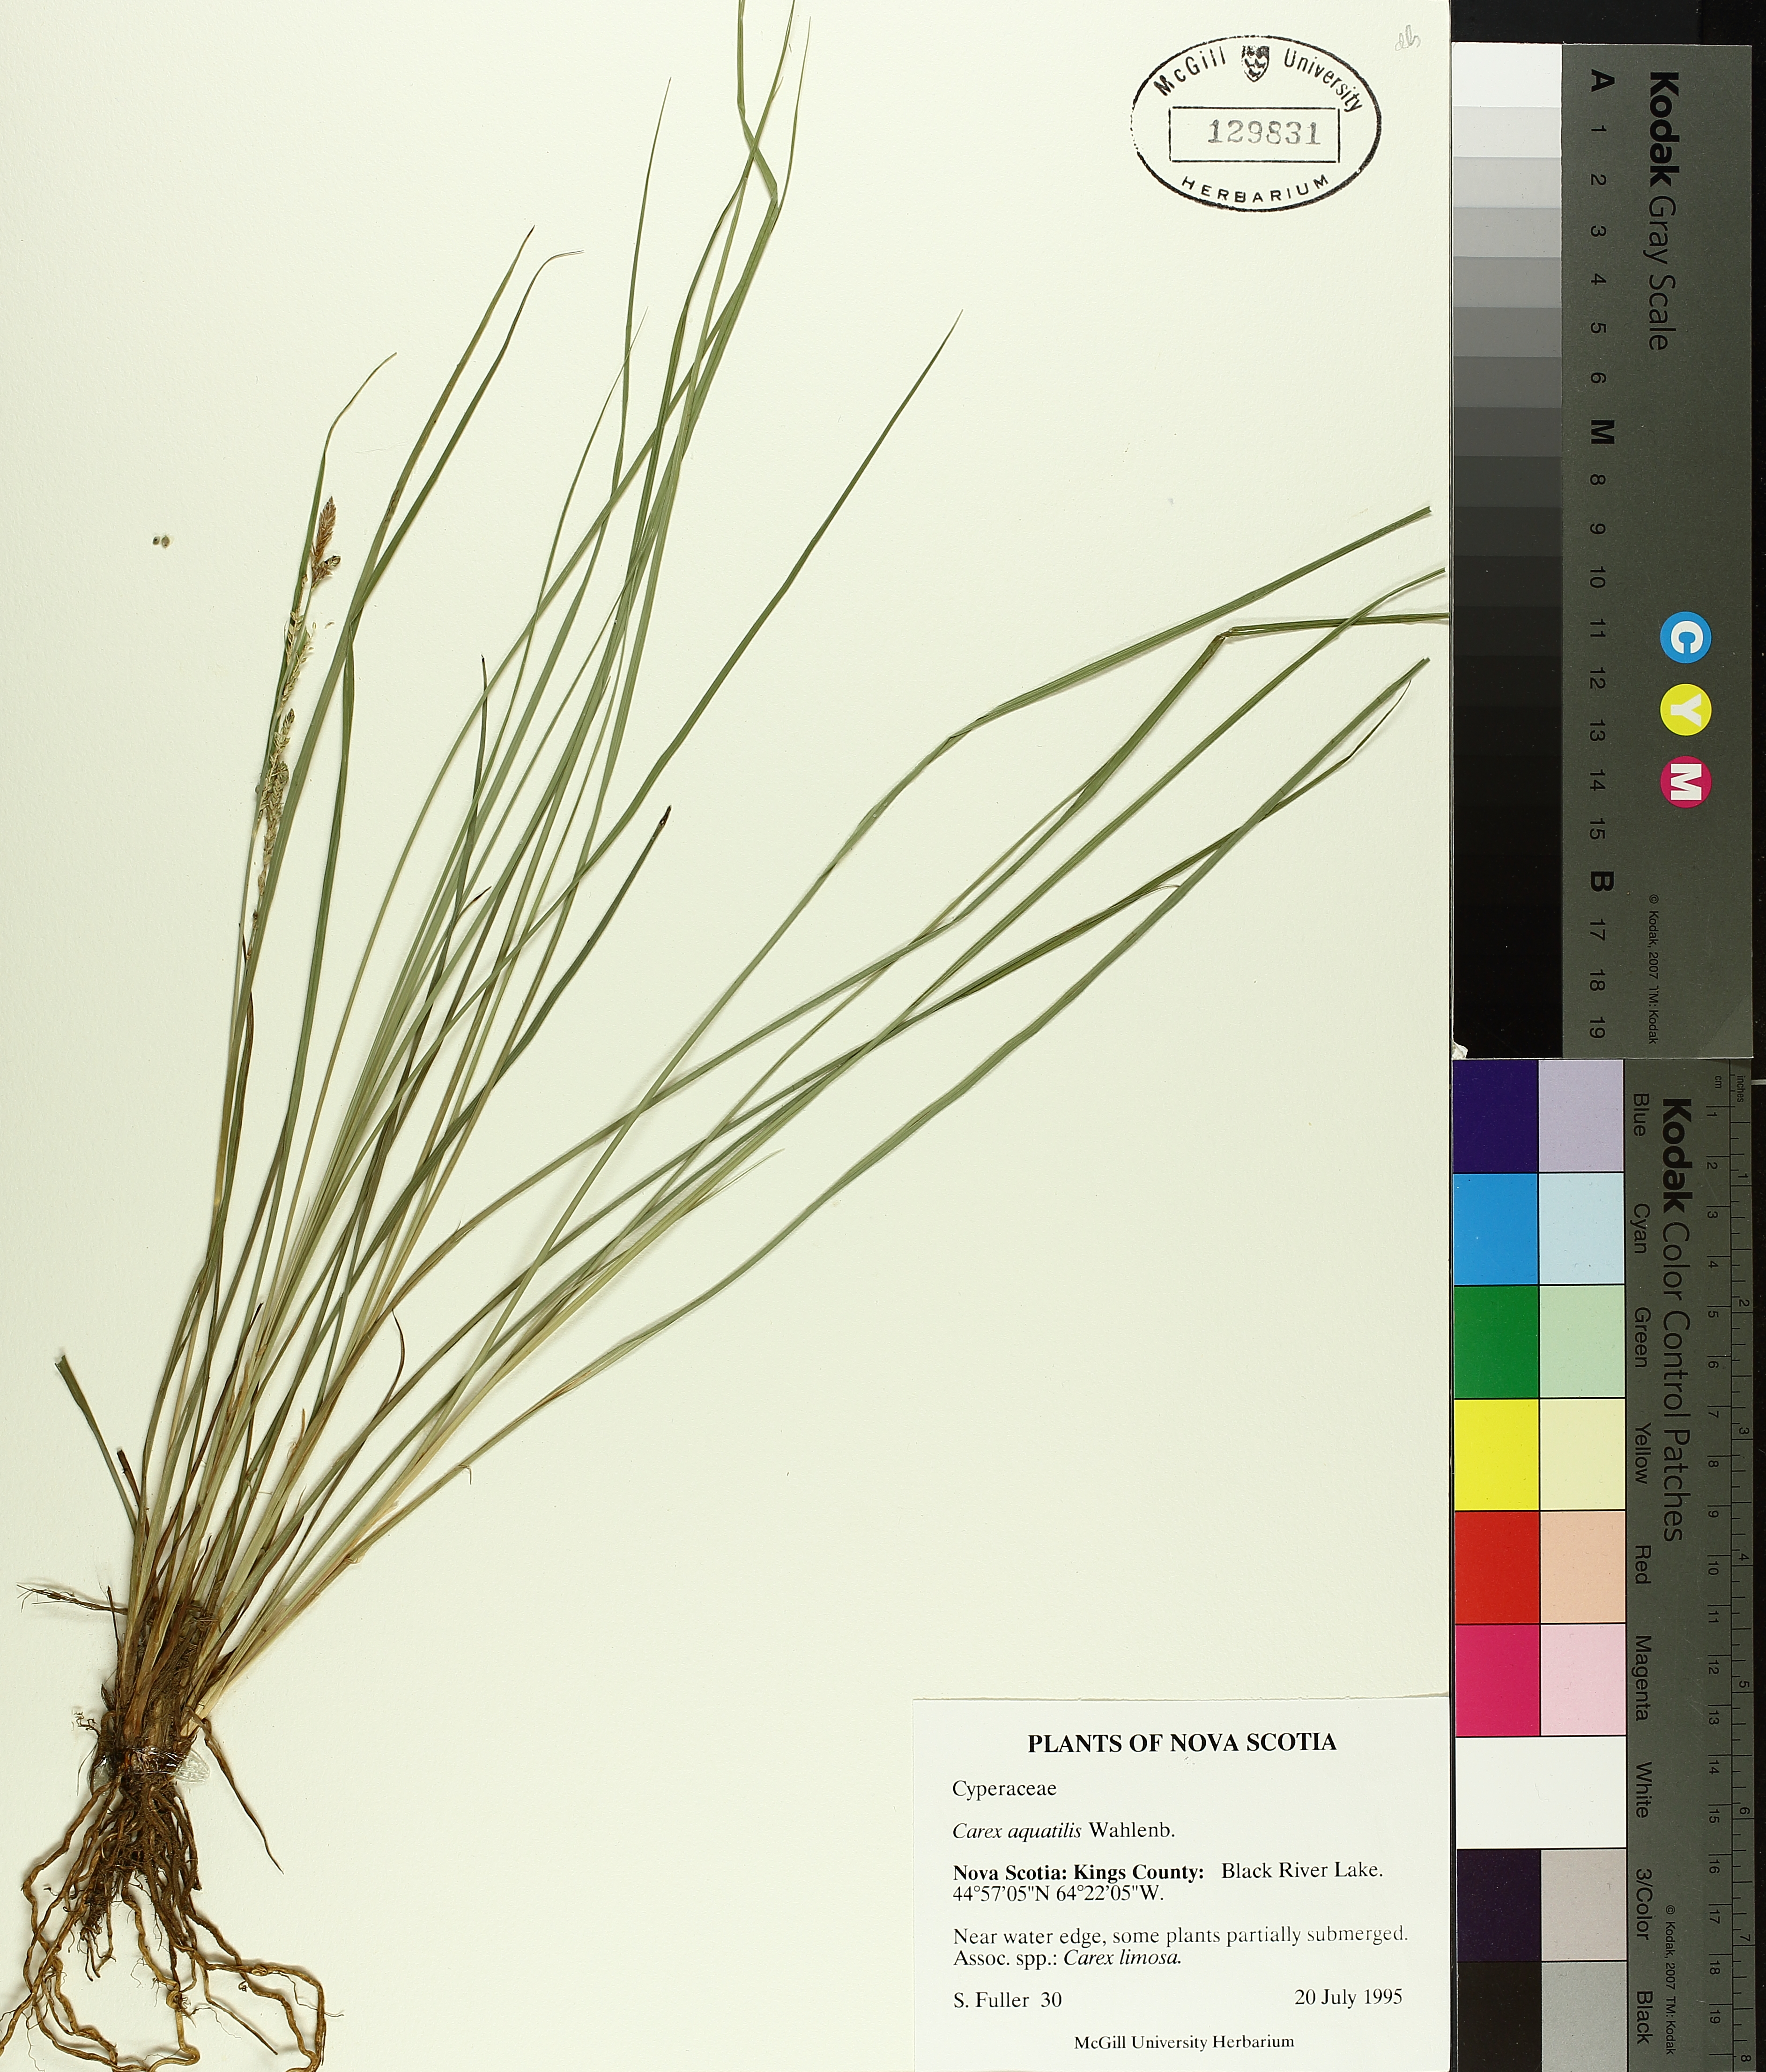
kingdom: Plantae
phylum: Tracheophyta
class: Liliopsida
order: Poales
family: Cyperaceae
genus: Carex
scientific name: Carex aquatilis
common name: Water sedge
